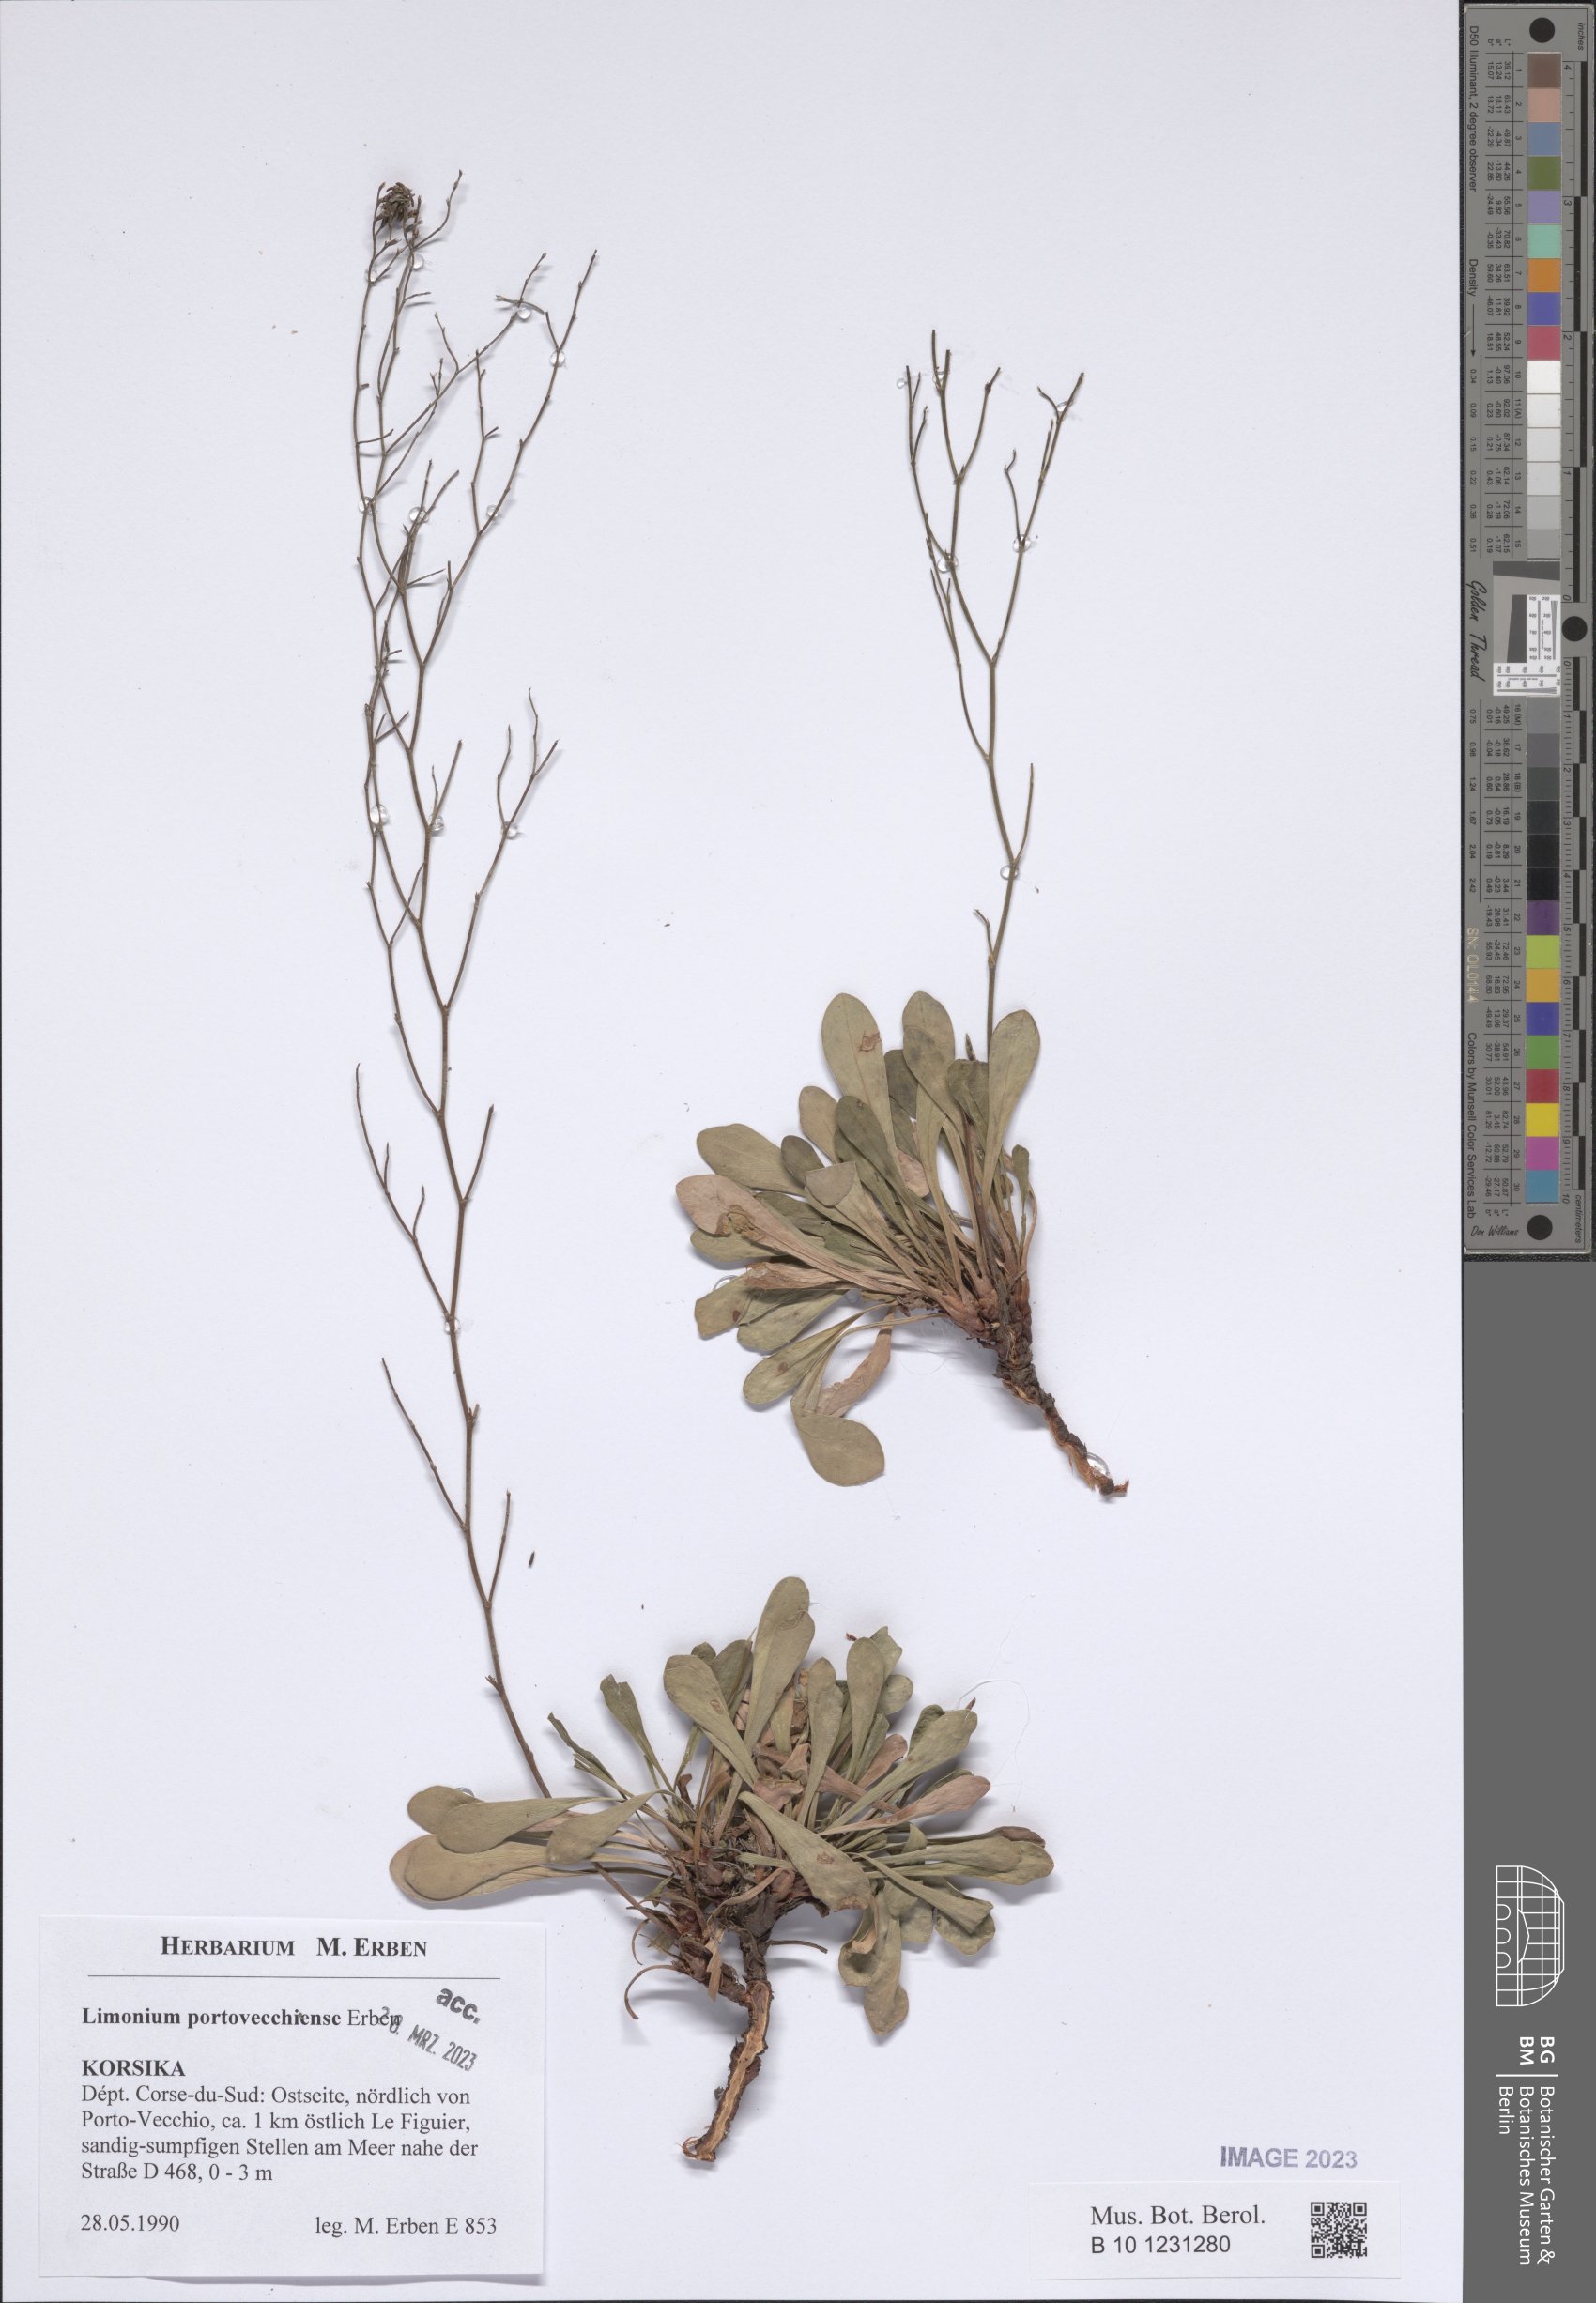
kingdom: Plantae
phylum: Tracheophyta
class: Magnoliopsida
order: Caryophyllales
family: Plumbaginaceae
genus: Limonium
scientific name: Limonium portovecchiense
